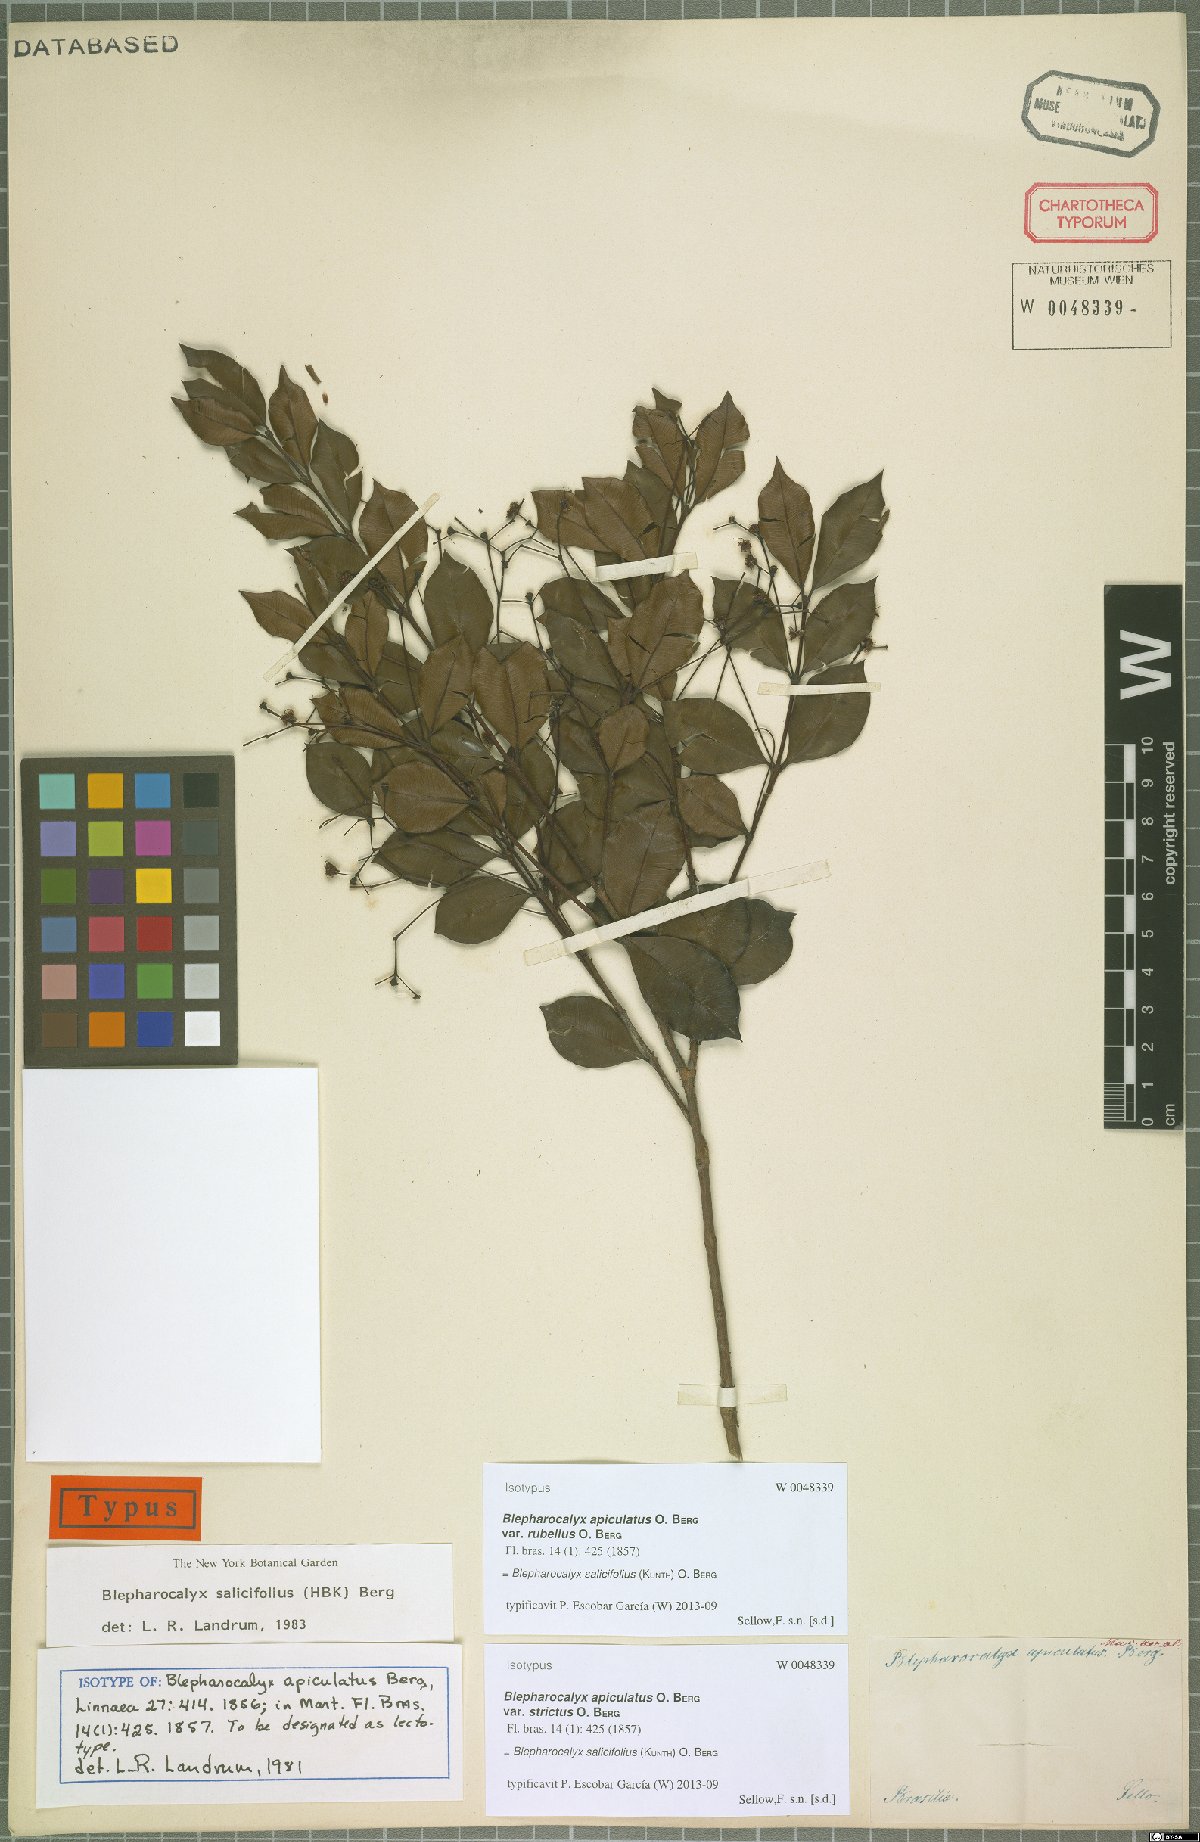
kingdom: Plantae
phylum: Tracheophyta
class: Magnoliopsida
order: Myrtales
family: Myrtaceae
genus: Blepharocalyx
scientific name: Blepharocalyx salicifolius
